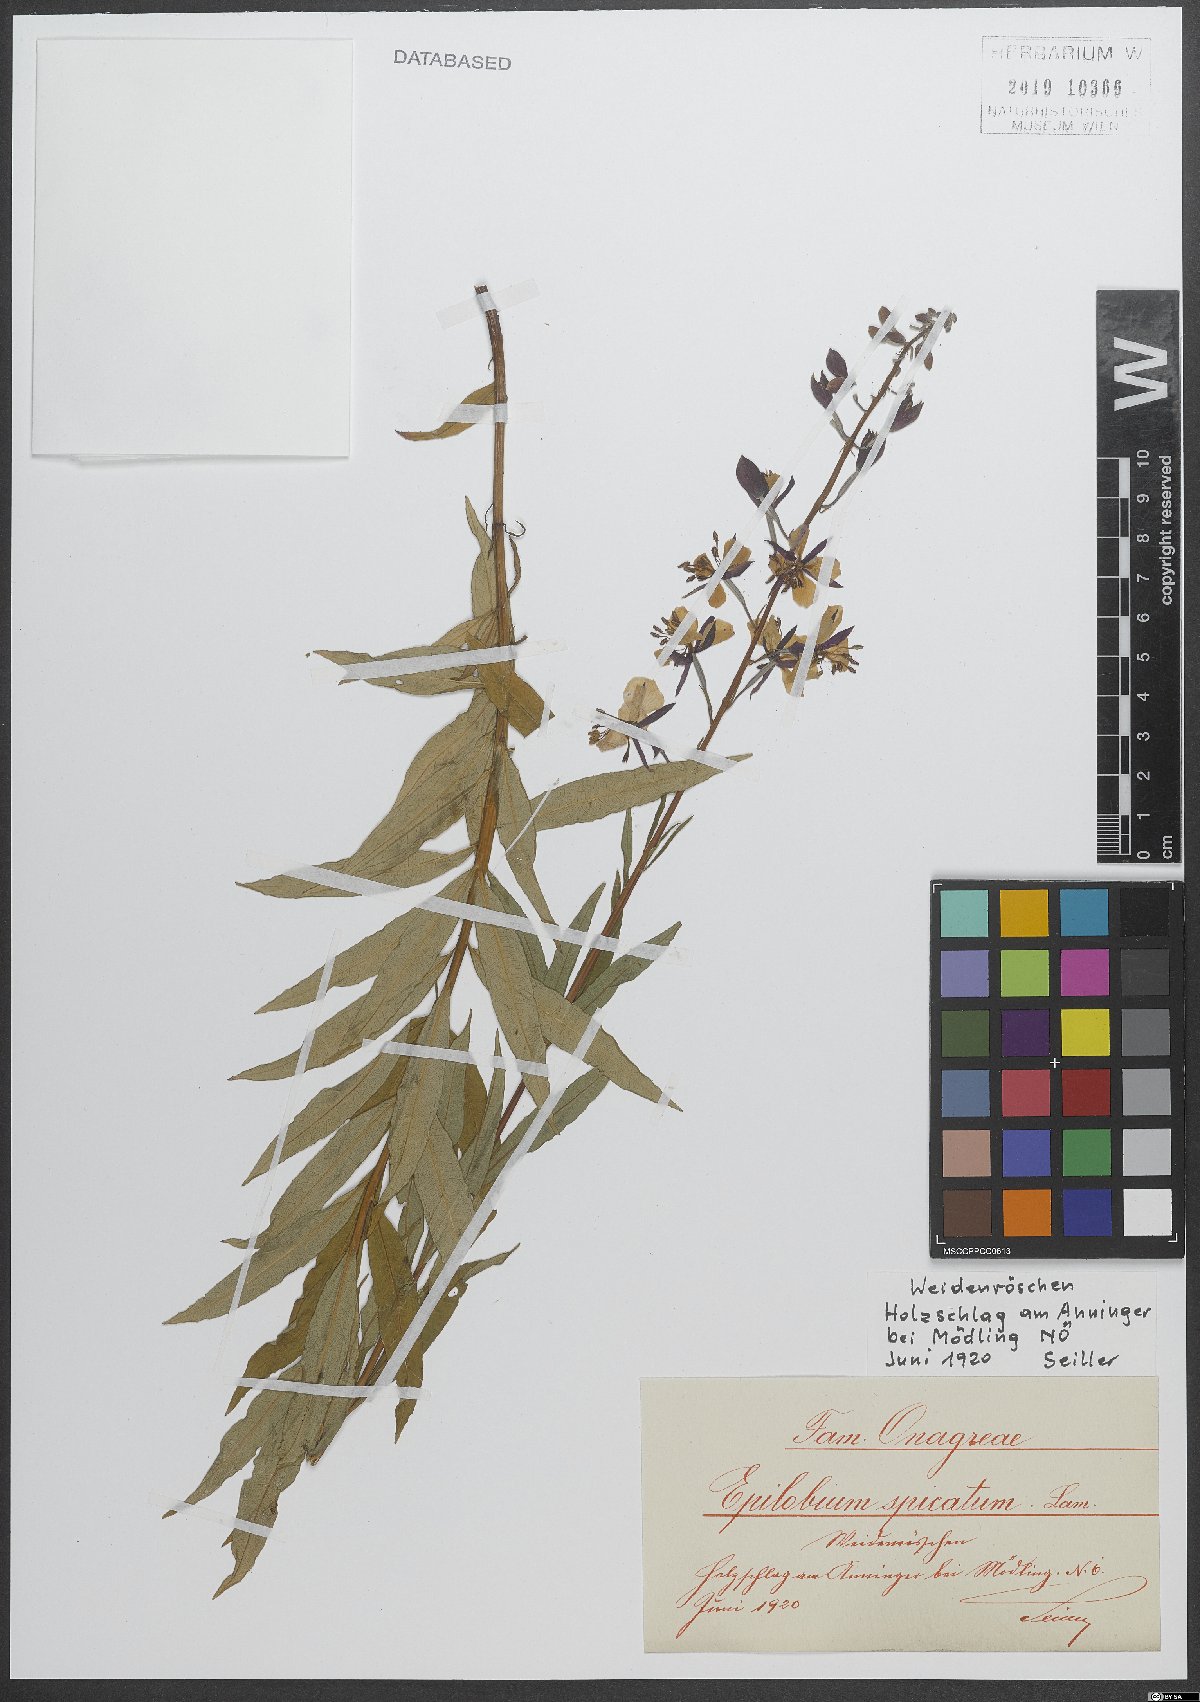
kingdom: Plantae
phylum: Tracheophyta
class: Magnoliopsida
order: Myrtales
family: Onagraceae
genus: Chamaenerion
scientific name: Chamaenerion angustifolium
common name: Fireweed
